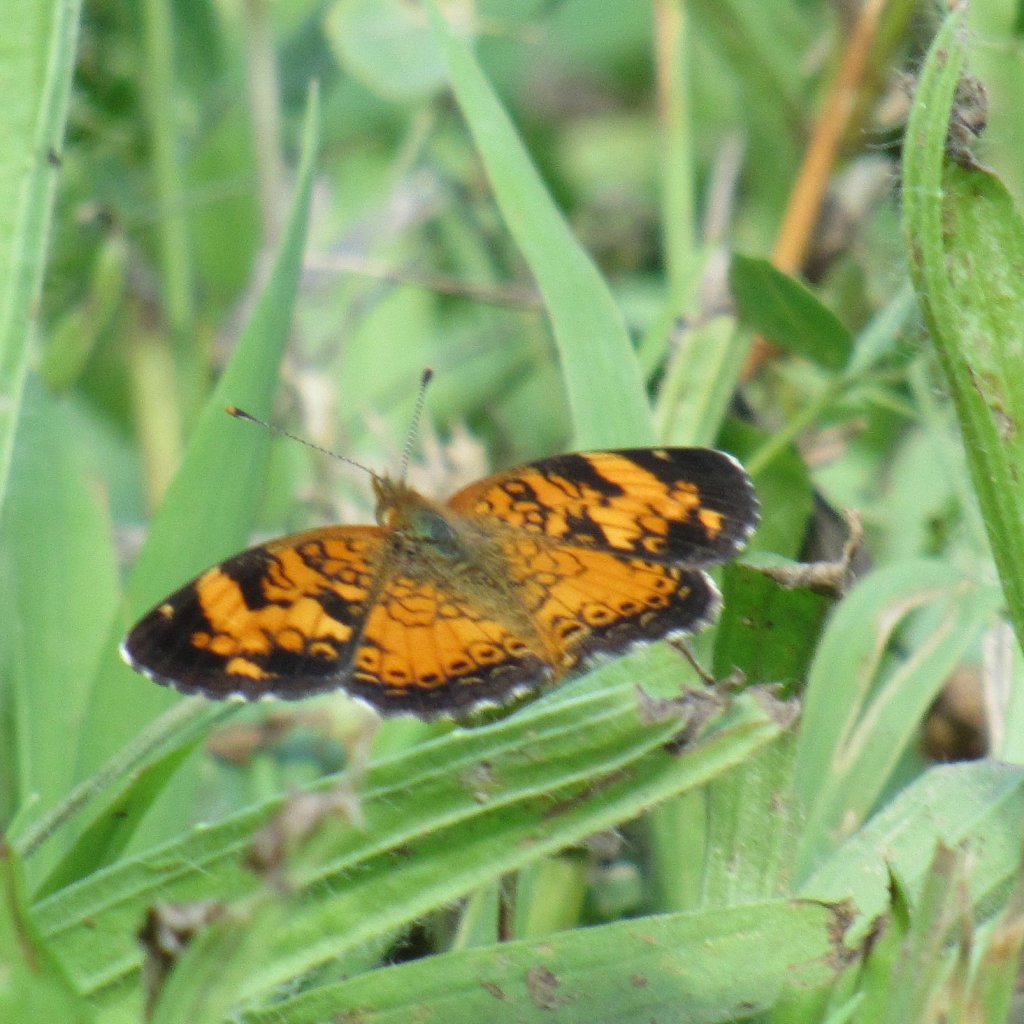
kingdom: Animalia
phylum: Arthropoda
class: Insecta
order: Lepidoptera
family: Nymphalidae
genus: Phyciodes
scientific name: Phyciodes tharos
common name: Pearl Crescent
